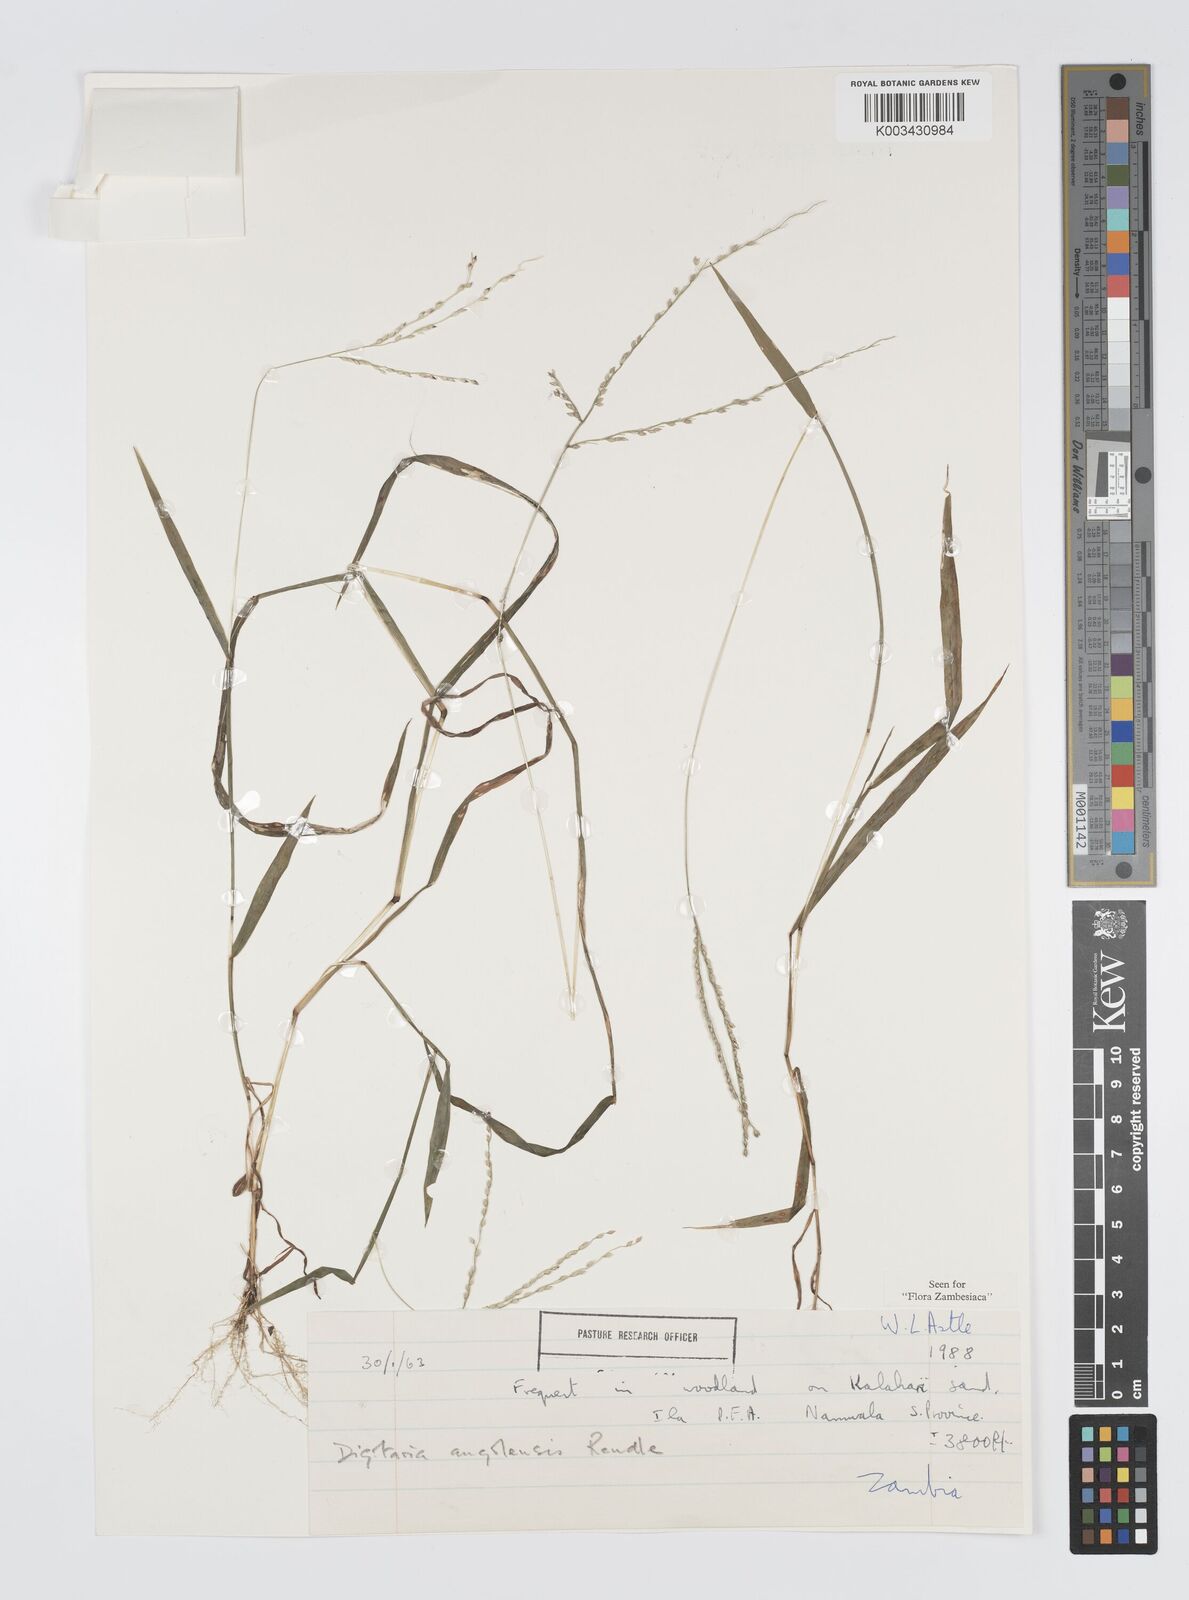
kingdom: Plantae
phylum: Tracheophyta
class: Liliopsida
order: Poales
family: Poaceae
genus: Digitaria
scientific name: Digitaria angolensis
